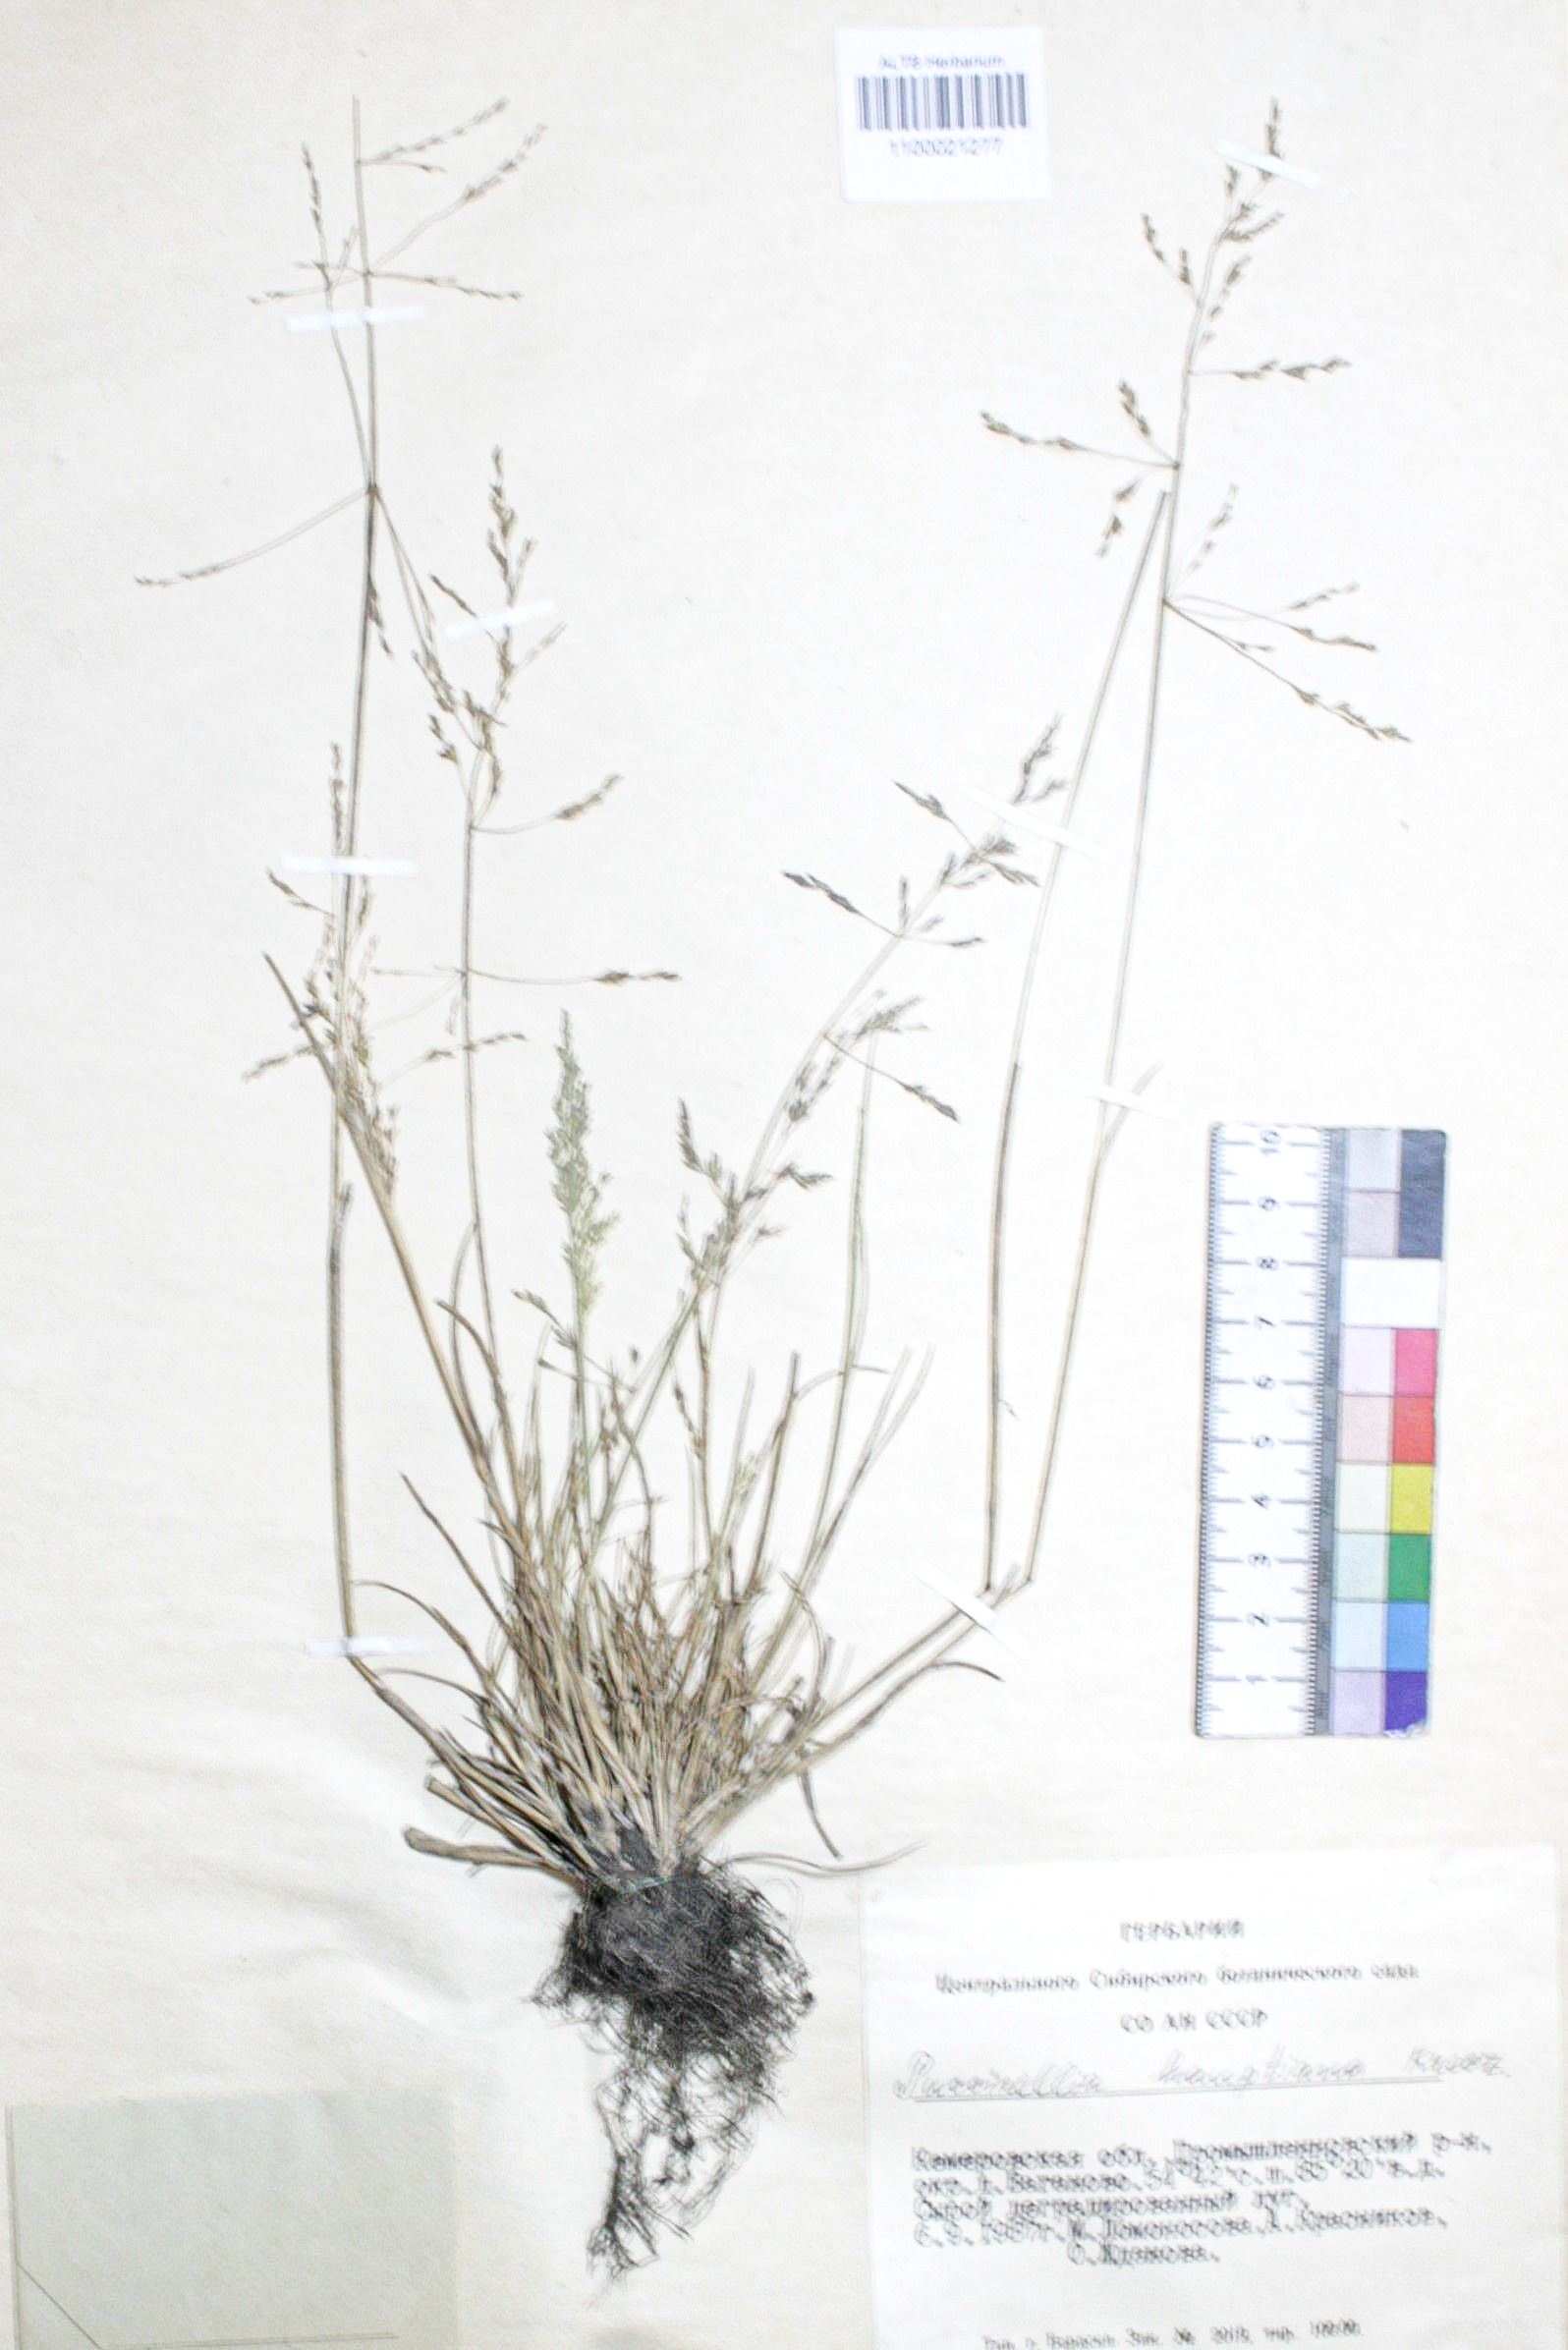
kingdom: Plantae
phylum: Tracheophyta
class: Liliopsida
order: Poales
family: Poaceae
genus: Puccinellia
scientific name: Puccinellia hauptiana
